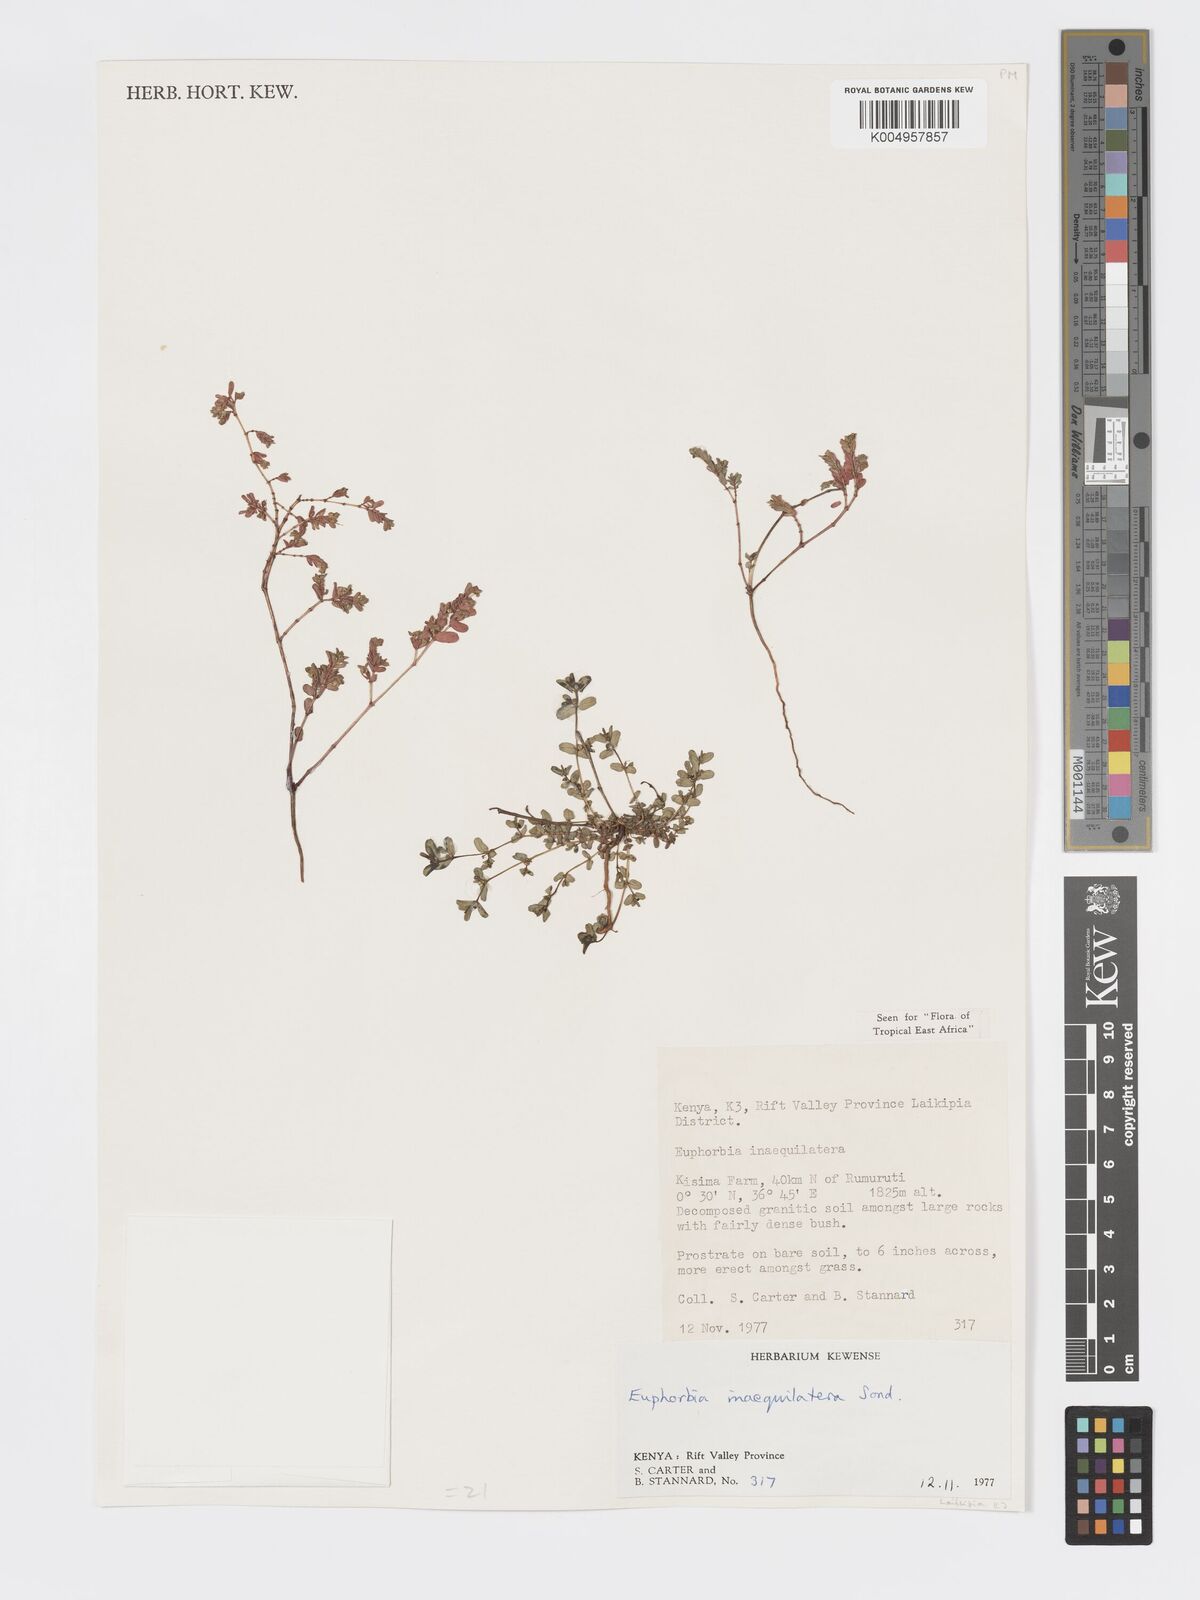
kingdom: Plantae
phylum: Tracheophyta
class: Magnoliopsida
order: Malpighiales
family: Euphorbiaceae
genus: Euphorbia
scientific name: Euphorbia inaequilatera
